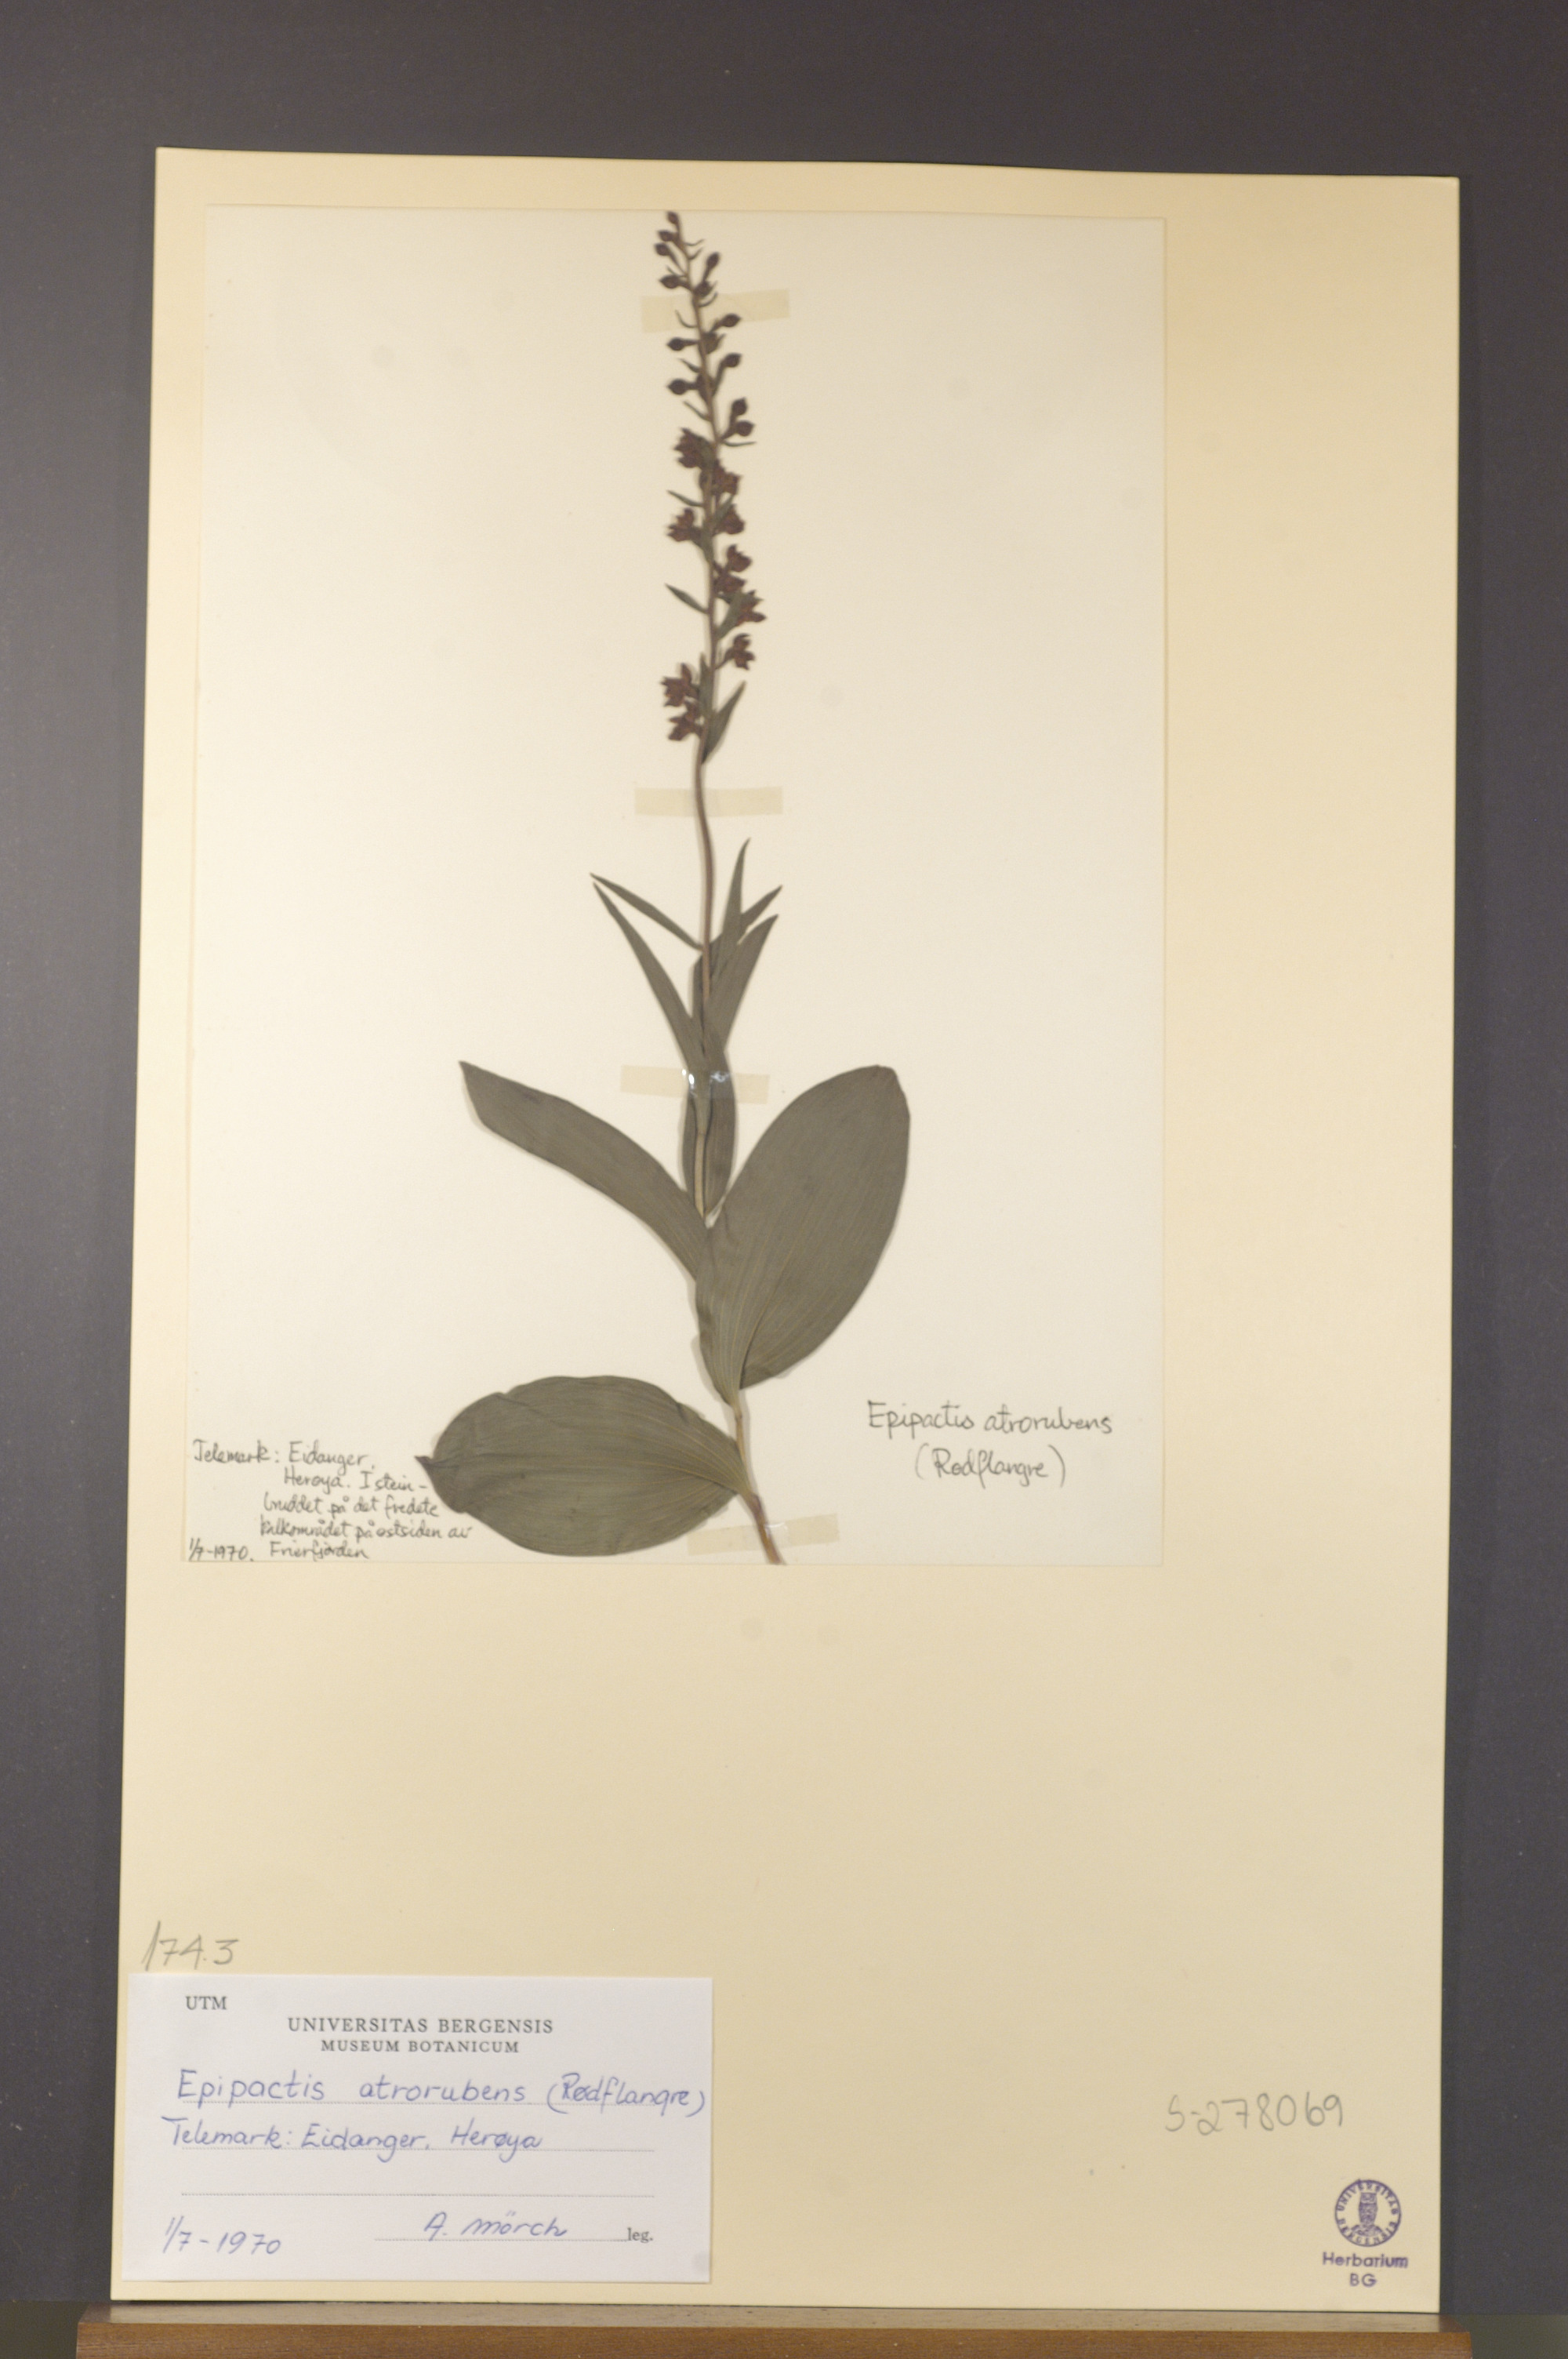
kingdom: Plantae
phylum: Tracheophyta
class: Liliopsida
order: Asparagales
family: Orchidaceae
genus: Epipactis
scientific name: Epipactis atrorubens
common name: Dark-red helleborine
